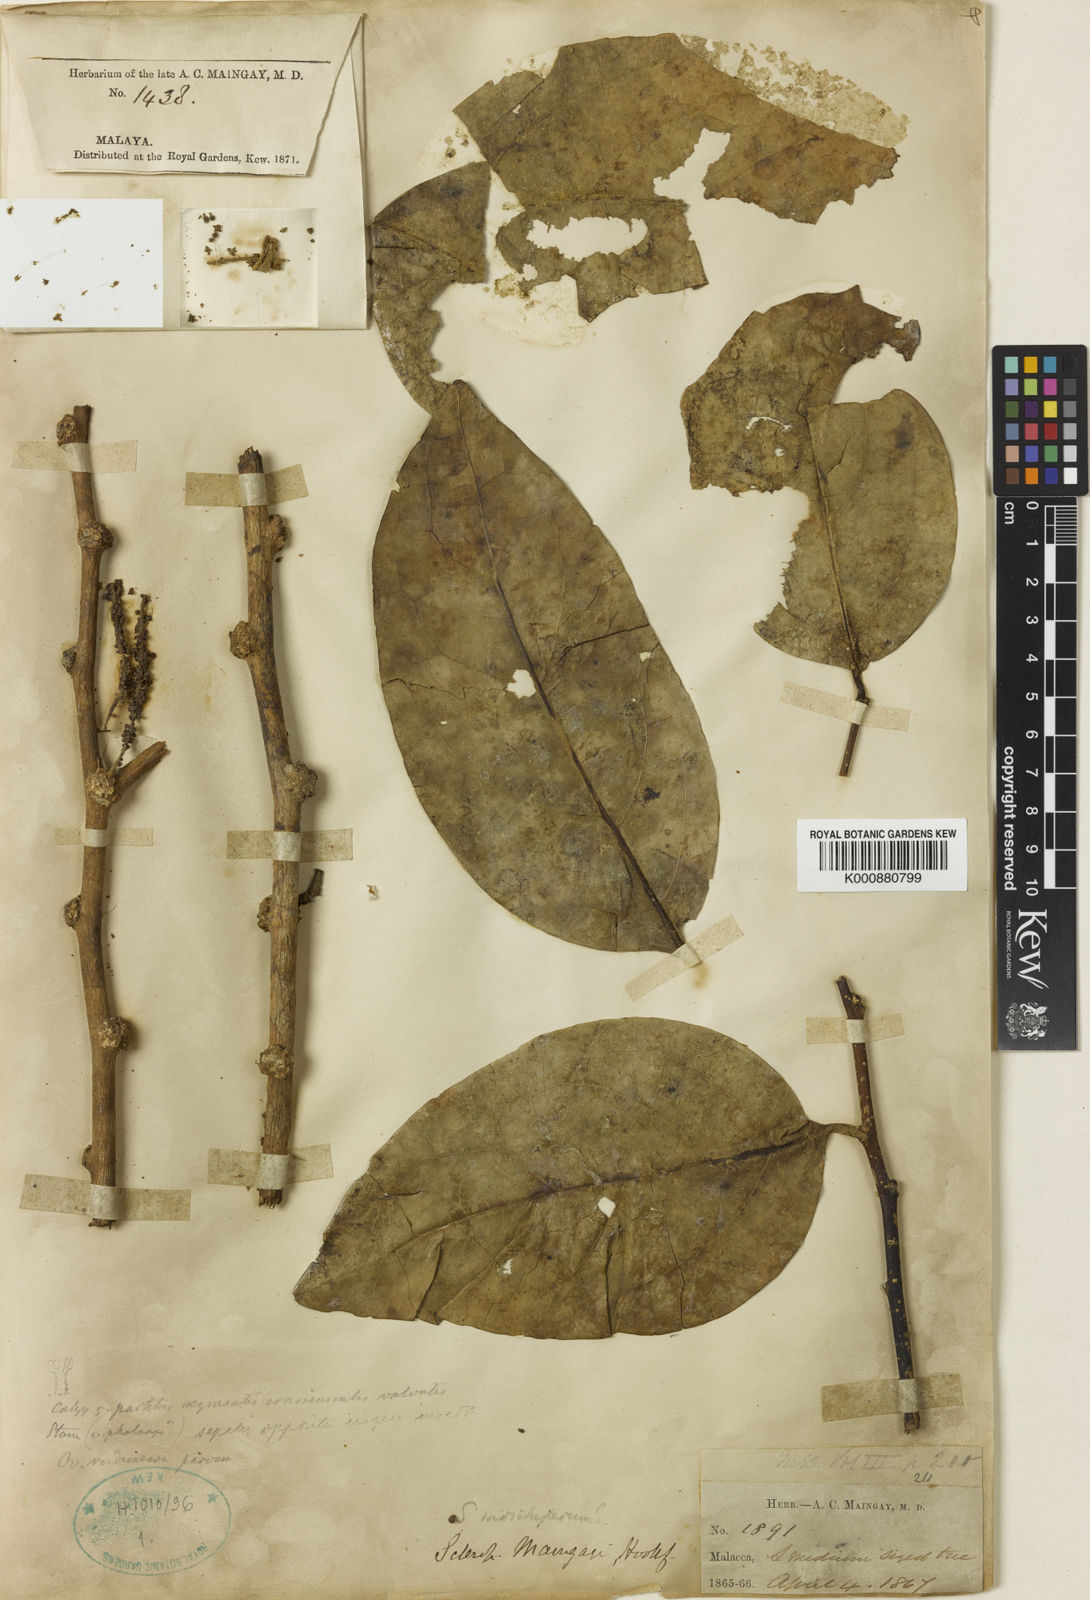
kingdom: Plantae
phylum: Tracheophyta
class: Magnoliopsida
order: Santalales
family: Cervantesiaceae
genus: Scleropyrum
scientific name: Scleropyrum maingayi
